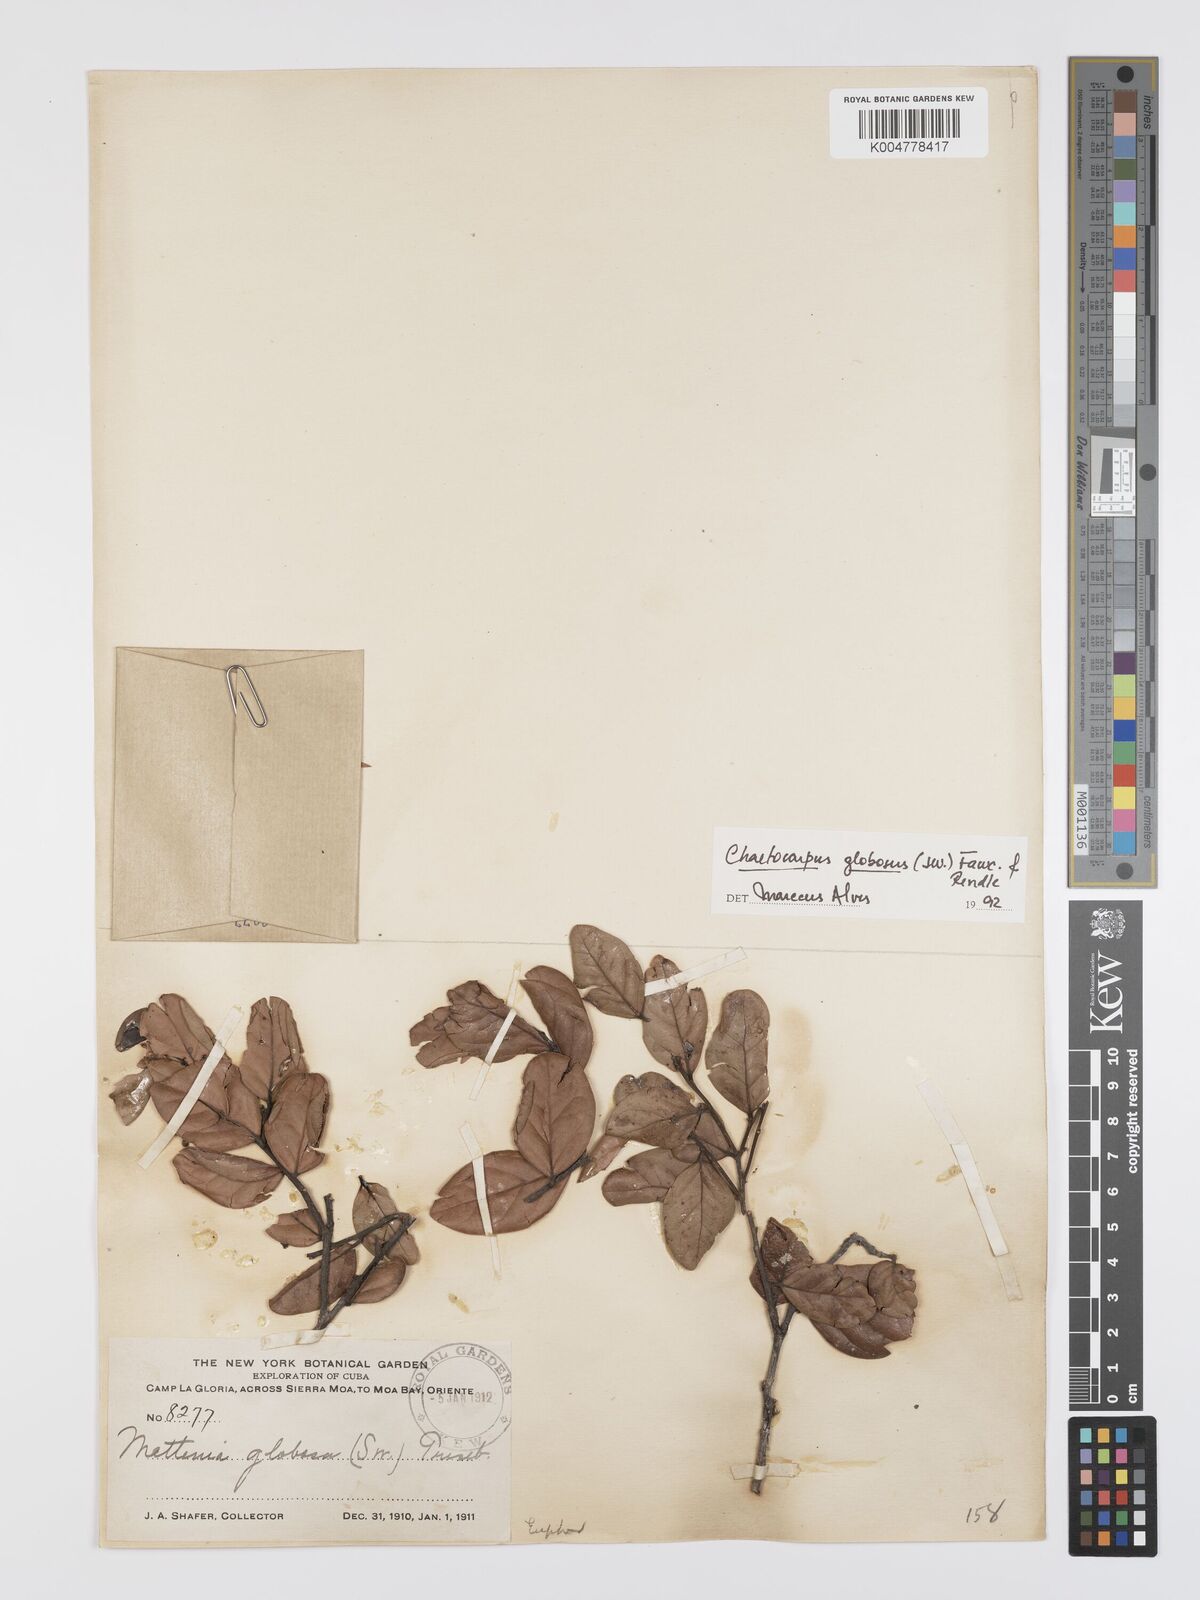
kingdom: Plantae
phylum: Tracheophyta
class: Magnoliopsida
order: Malpighiales
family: Peraceae
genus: Chaetocarpus
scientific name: Chaetocarpus globosus
